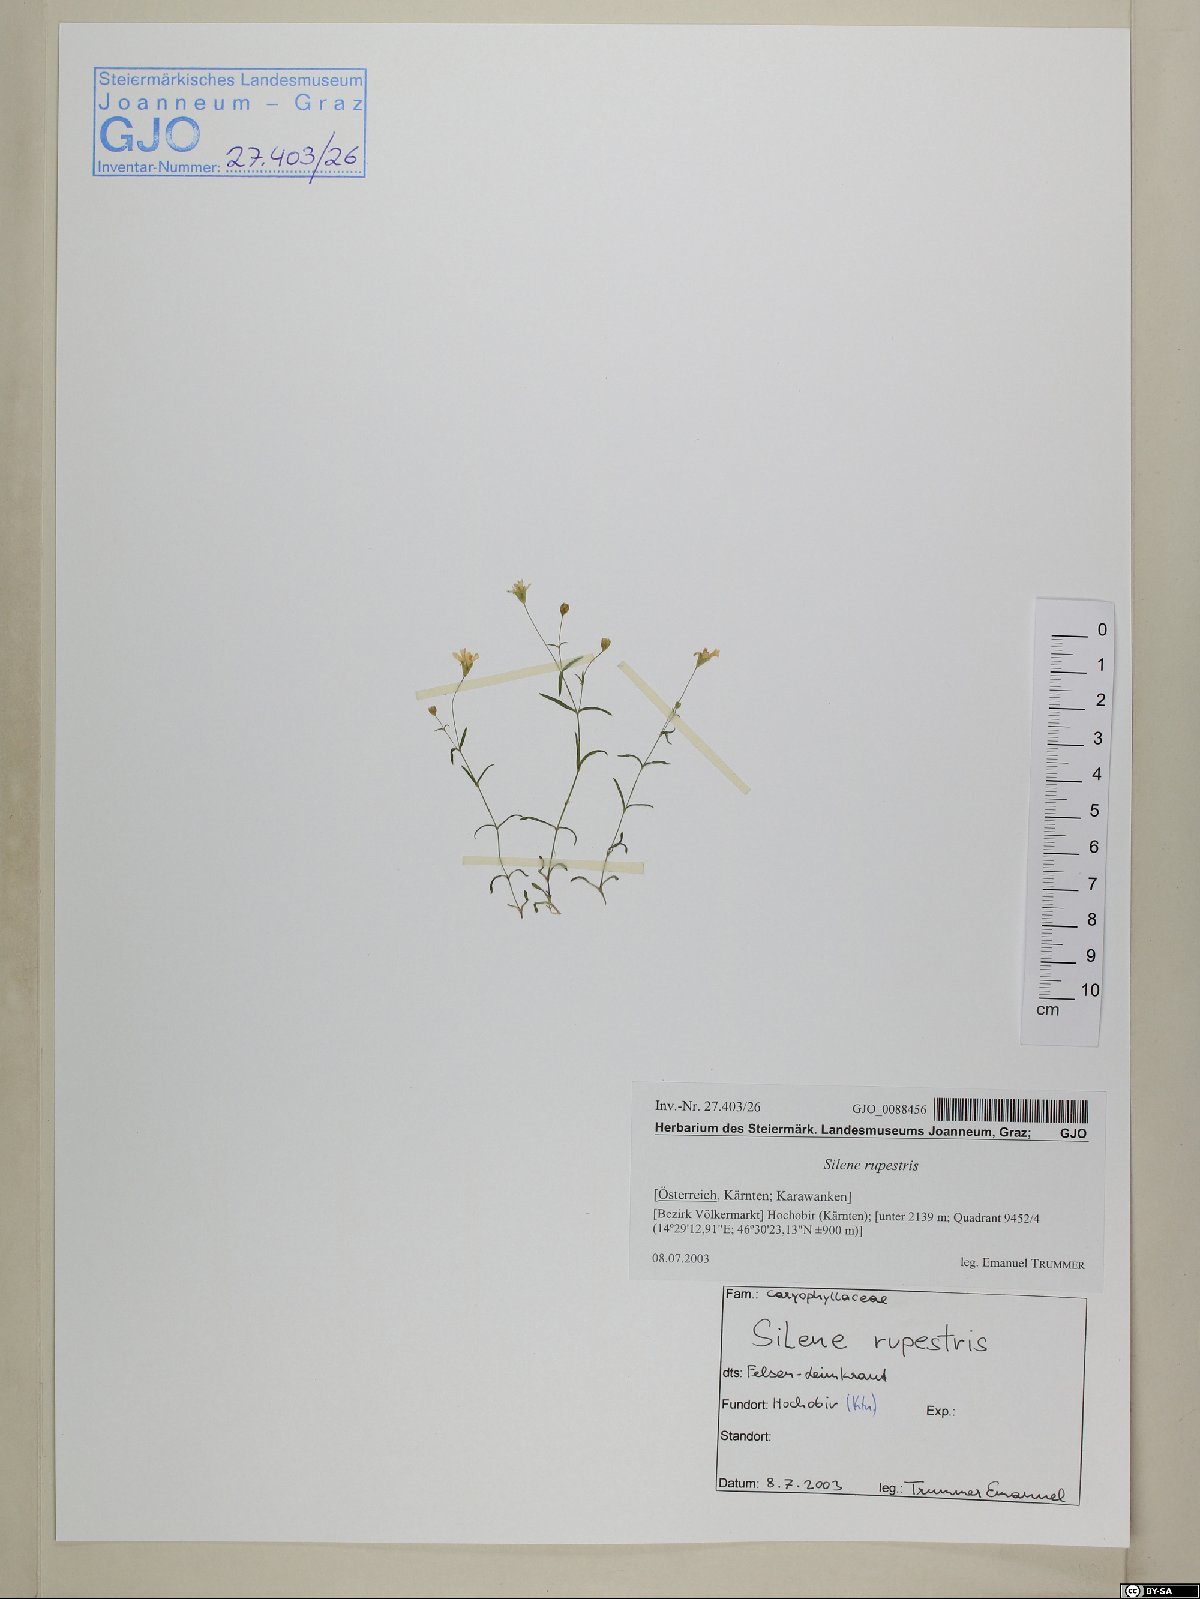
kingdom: Plantae
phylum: Tracheophyta
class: Magnoliopsida
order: Caryophyllales
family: Caryophyllaceae
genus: Heliosperma
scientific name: Heliosperma pusillum
